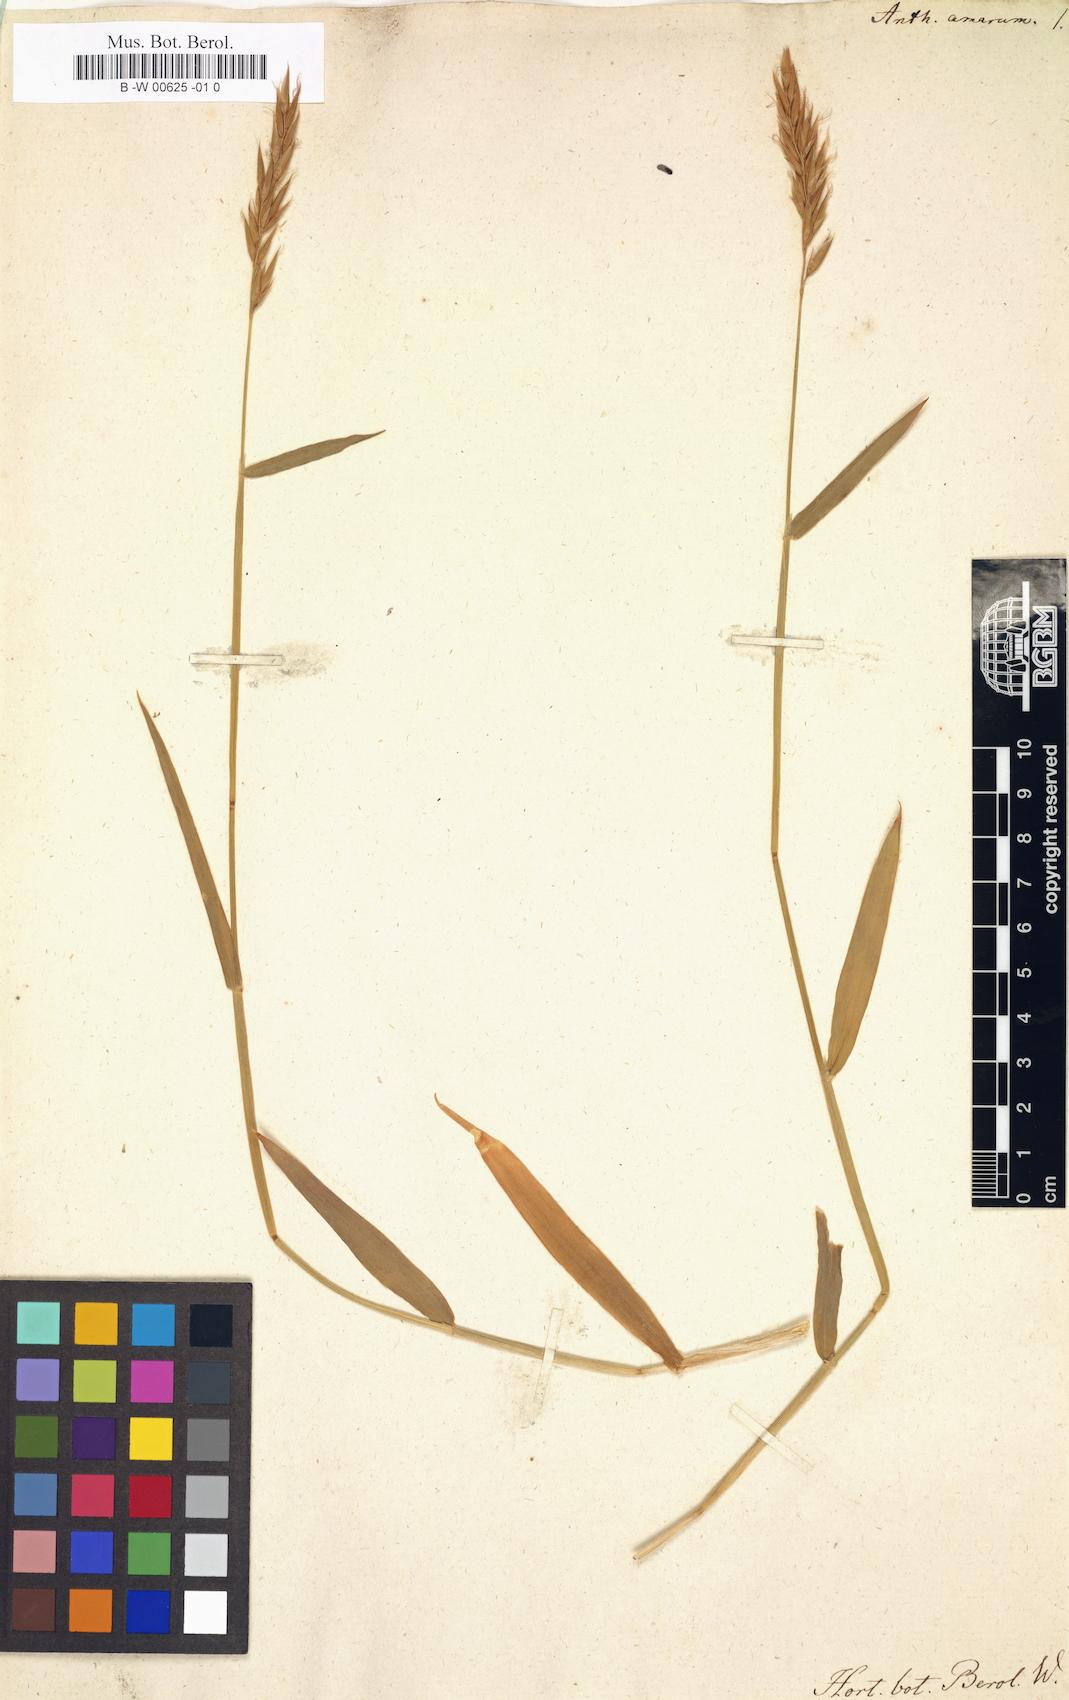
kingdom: Plantae
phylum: Tracheophyta
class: Liliopsida
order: Poales
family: Poaceae
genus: Anthoxanthum
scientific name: Anthoxanthum amarum
